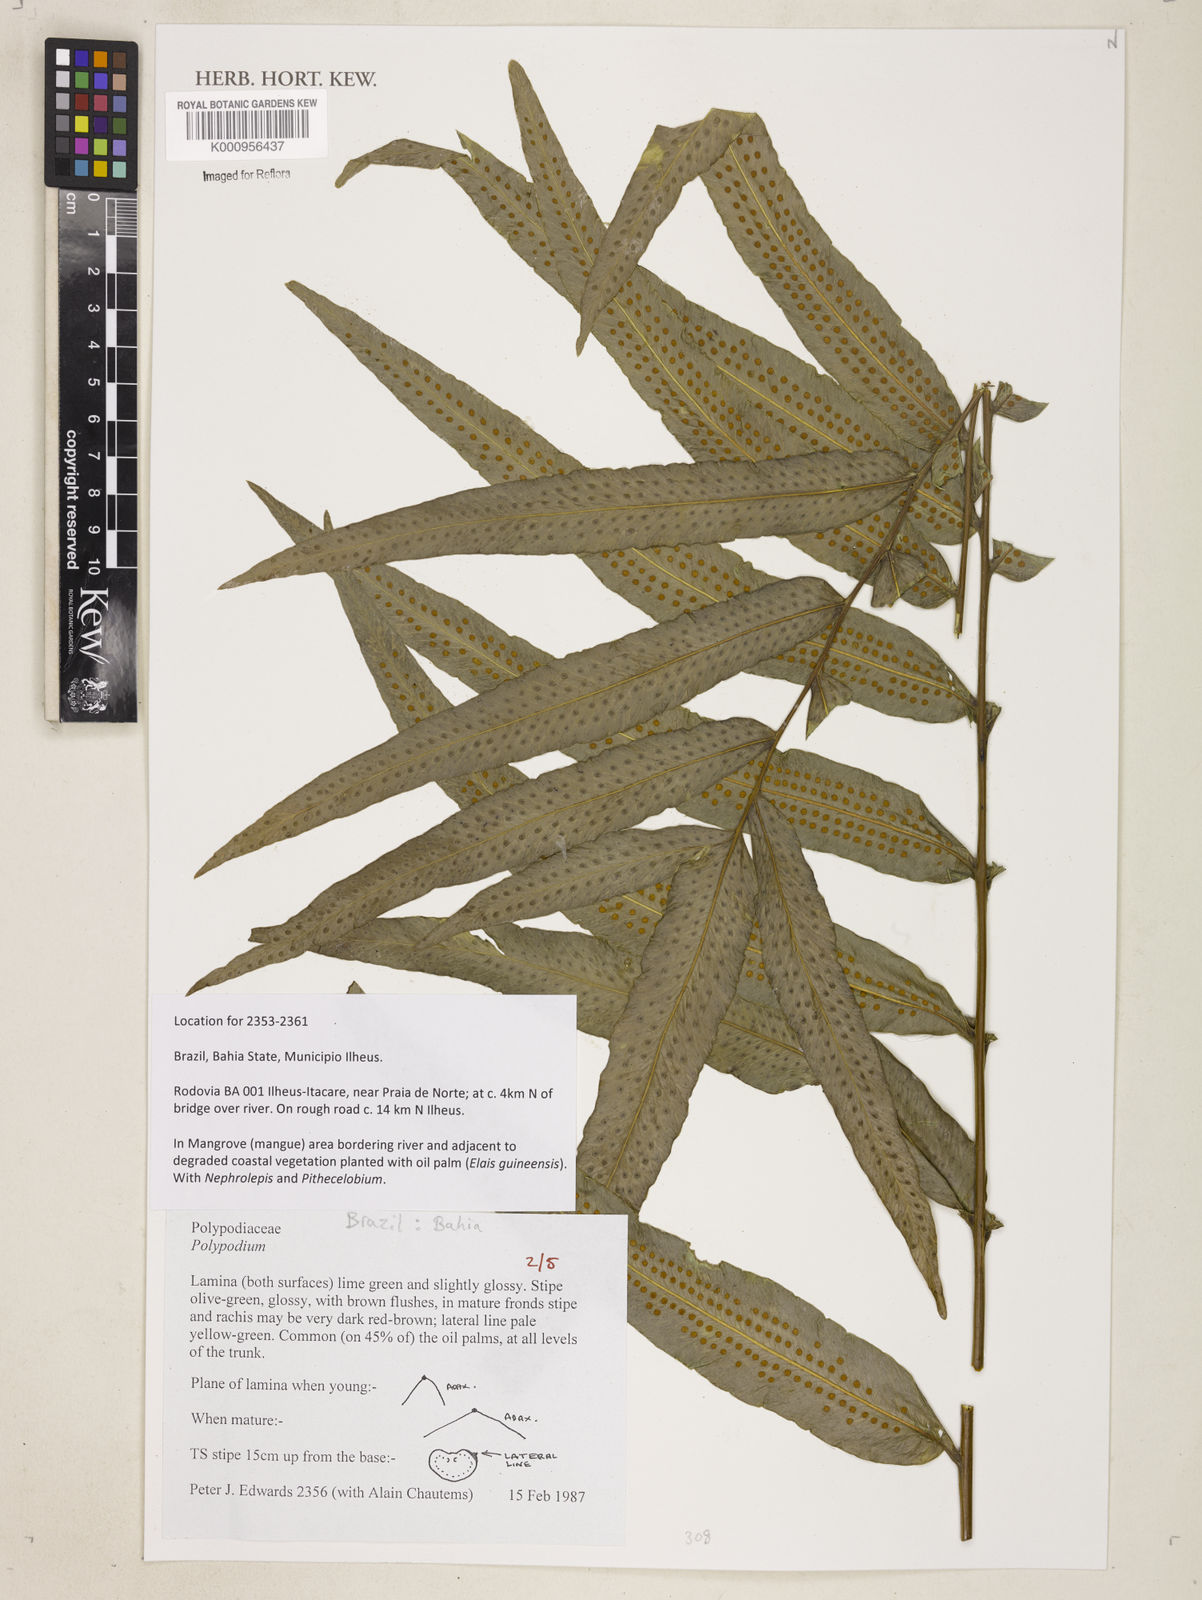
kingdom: Plantae
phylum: Tracheophyta
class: Polypodiopsida
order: Polypodiales
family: Polypodiaceae
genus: Polypodium
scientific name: Polypodium
